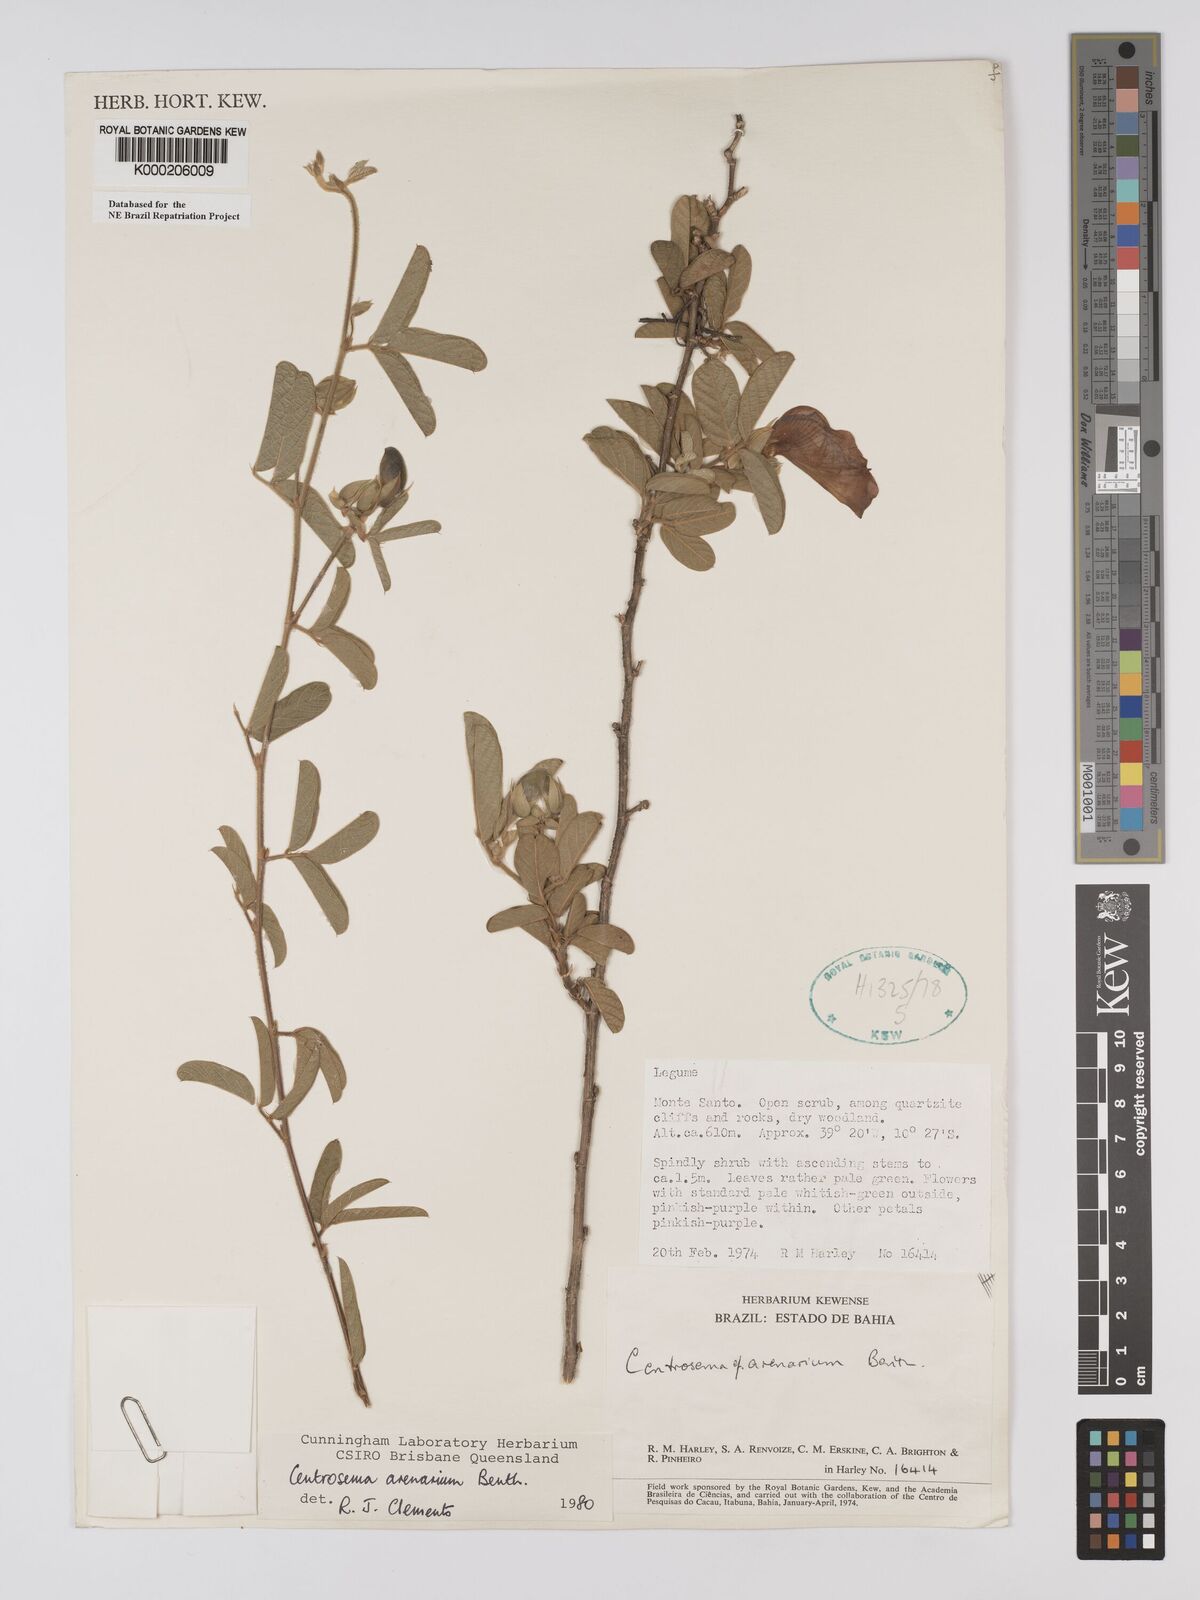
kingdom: Plantae
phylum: Tracheophyta
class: Magnoliopsida
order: Fabales
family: Fabaceae
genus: Centrosema
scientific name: Centrosema arenarium
